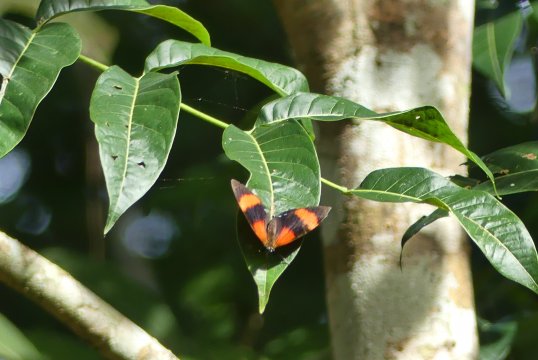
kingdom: Animalia
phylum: Arthropoda
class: Insecta
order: Lepidoptera
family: Hesperiidae
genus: Vettius
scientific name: Vettius lafrenaye
